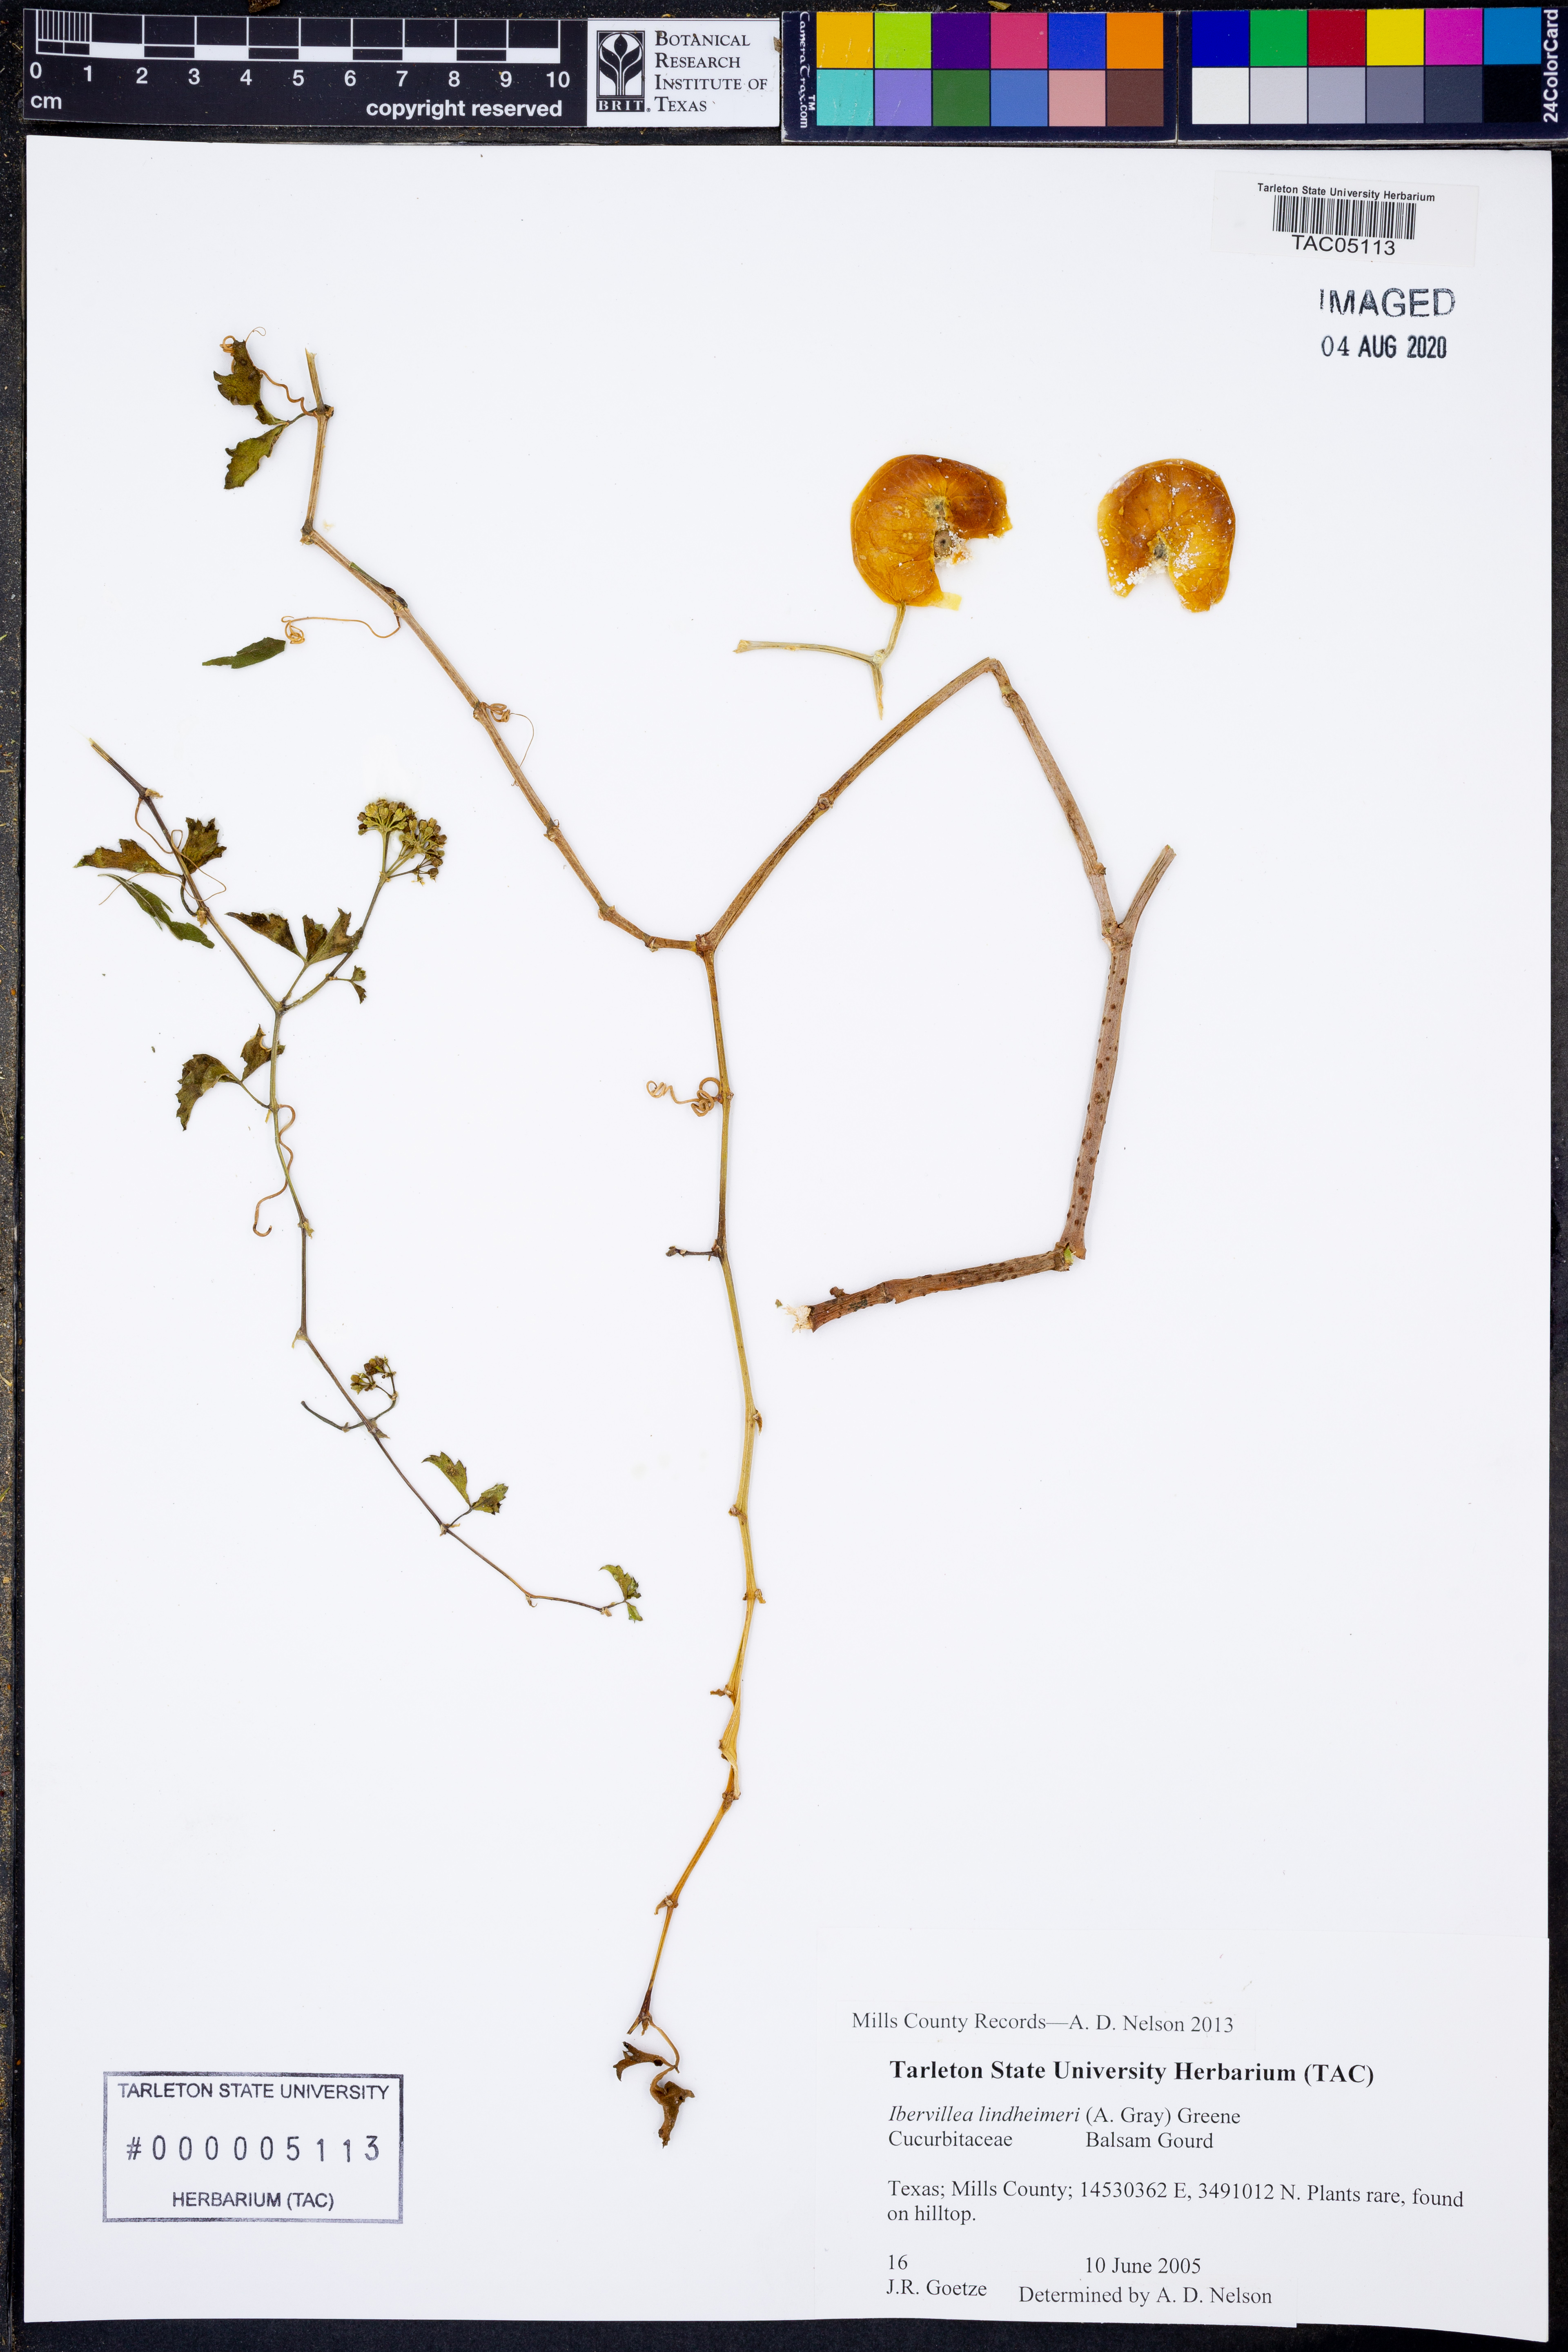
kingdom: Plantae
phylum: Tracheophyta
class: Magnoliopsida
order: Cucurbitales
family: Cucurbitaceae
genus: Ibervillea
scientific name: Ibervillea lindheimeri
